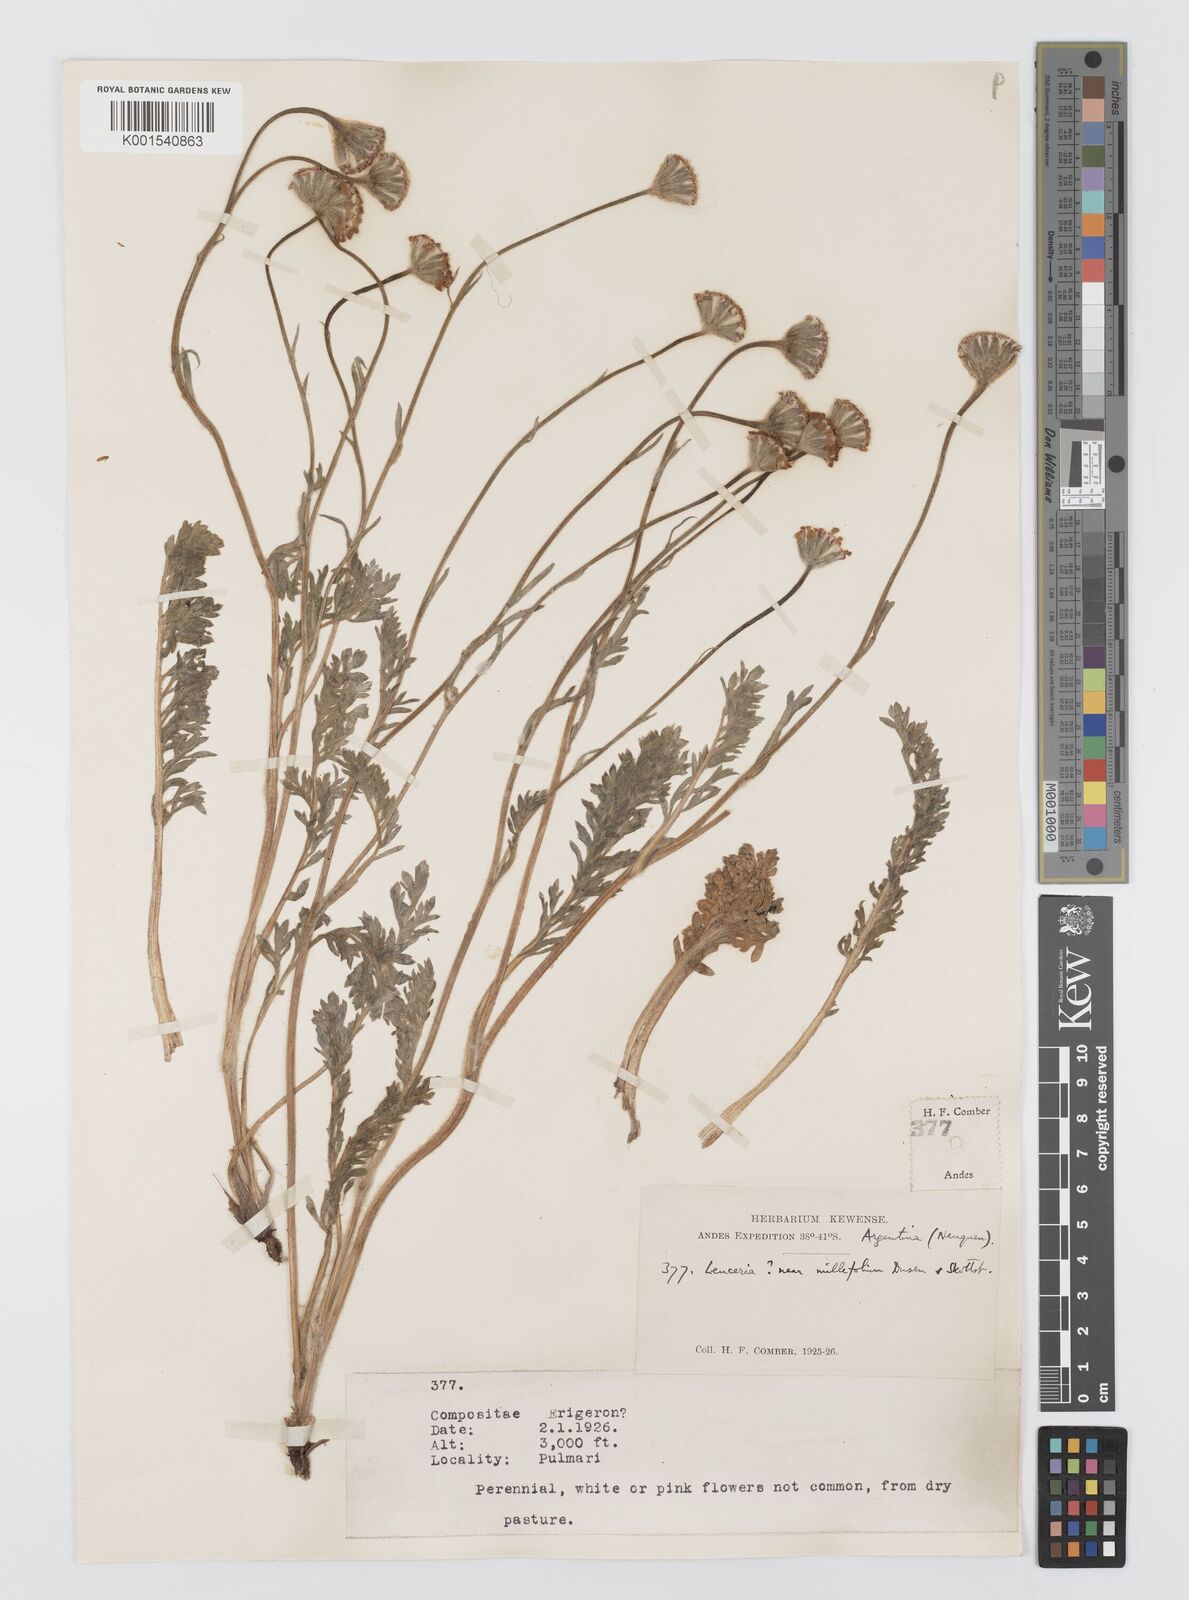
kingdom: Plantae
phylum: Tracheophyta
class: Magnoliopsida
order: Asterales
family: Asteraceae
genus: Leucheria
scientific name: Leucheria millefolium
